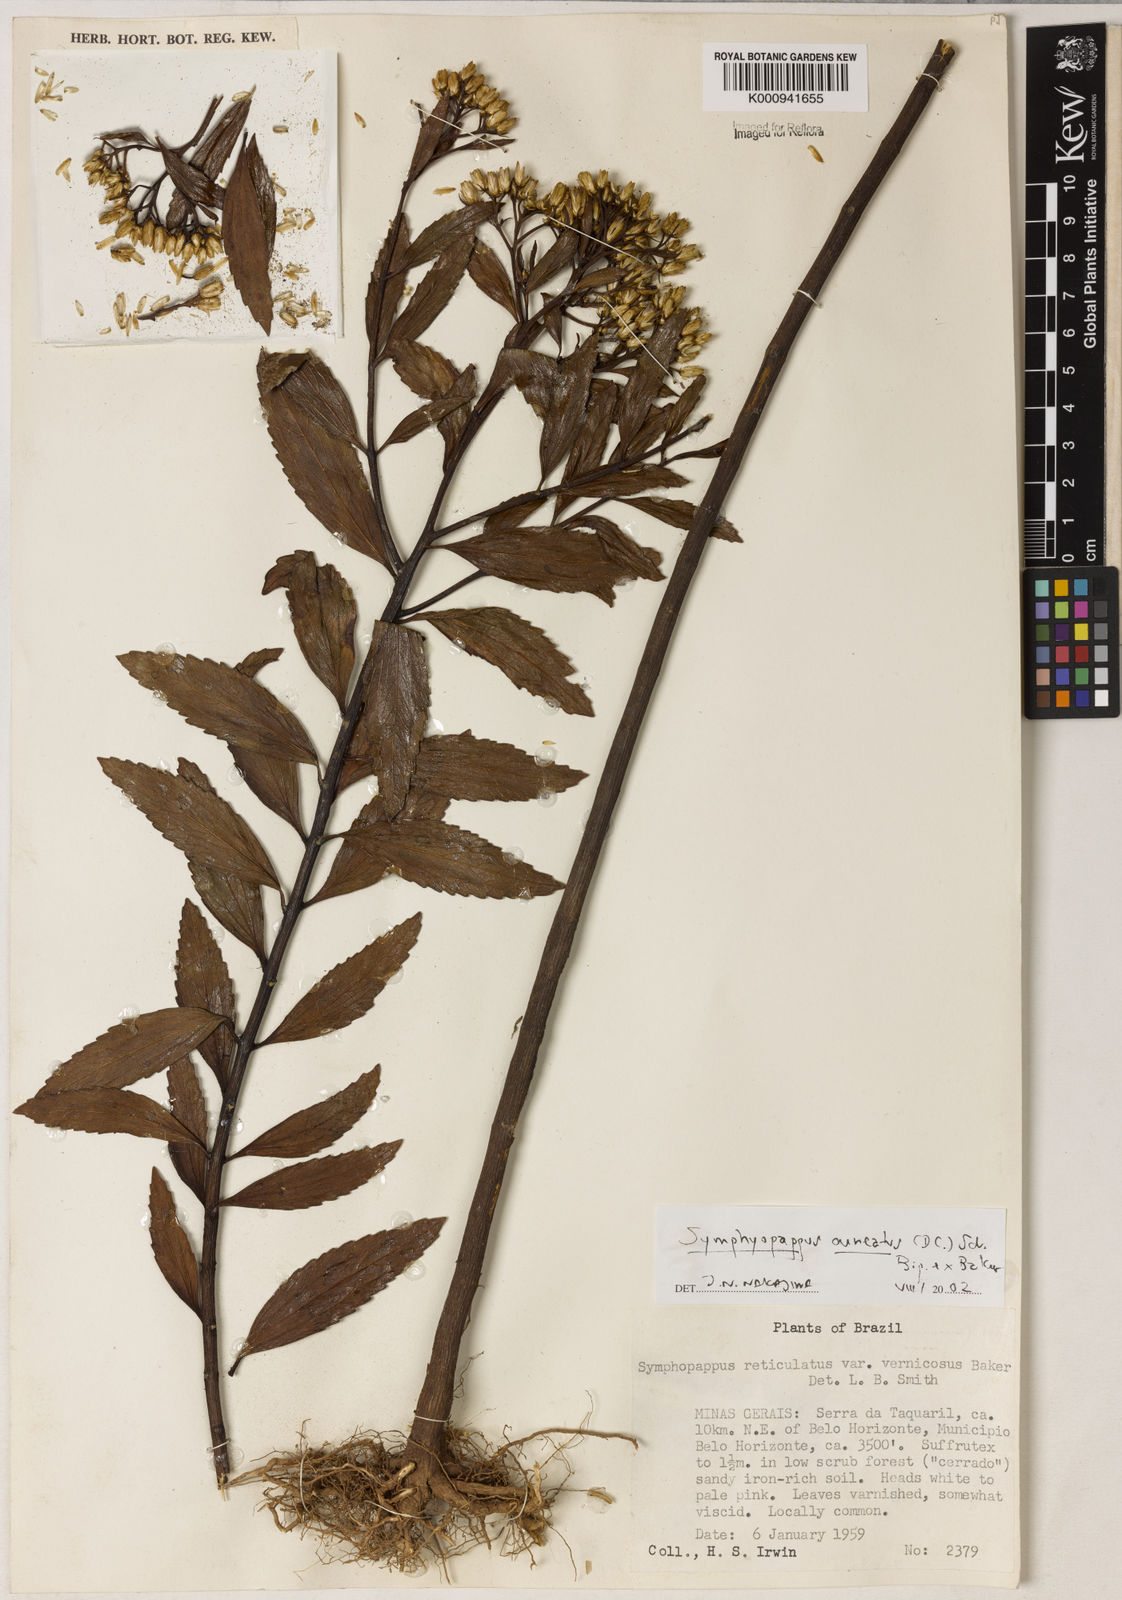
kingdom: Plantae
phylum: Tracheophyta
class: Magnoliopsida
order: Asterales
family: Asteraceae
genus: Symphyopappus
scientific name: Symphyopappus cuneatus
